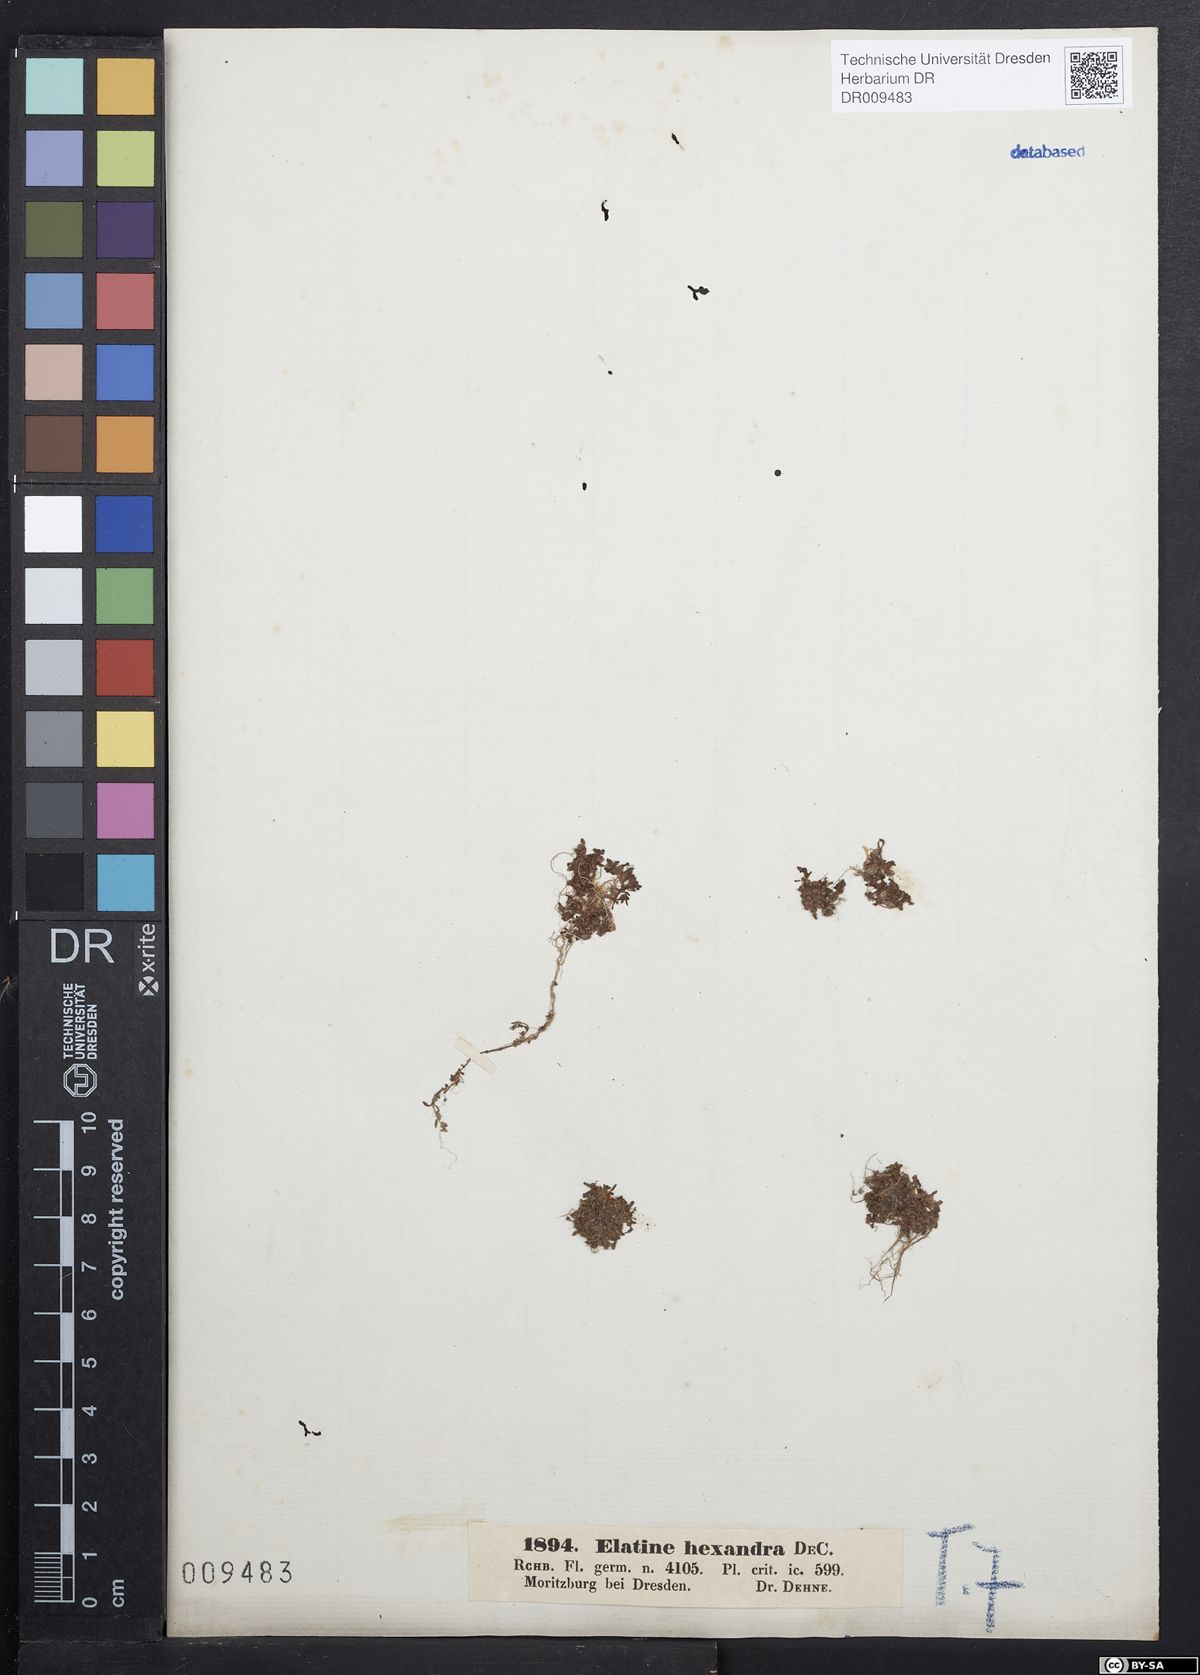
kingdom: Plantae
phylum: Tracheophyta
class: Magnoliopsida
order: Malpighiales
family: Elatinaceae
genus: Elatine
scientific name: Elatine hexandra
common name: Six-stamened waterwort
